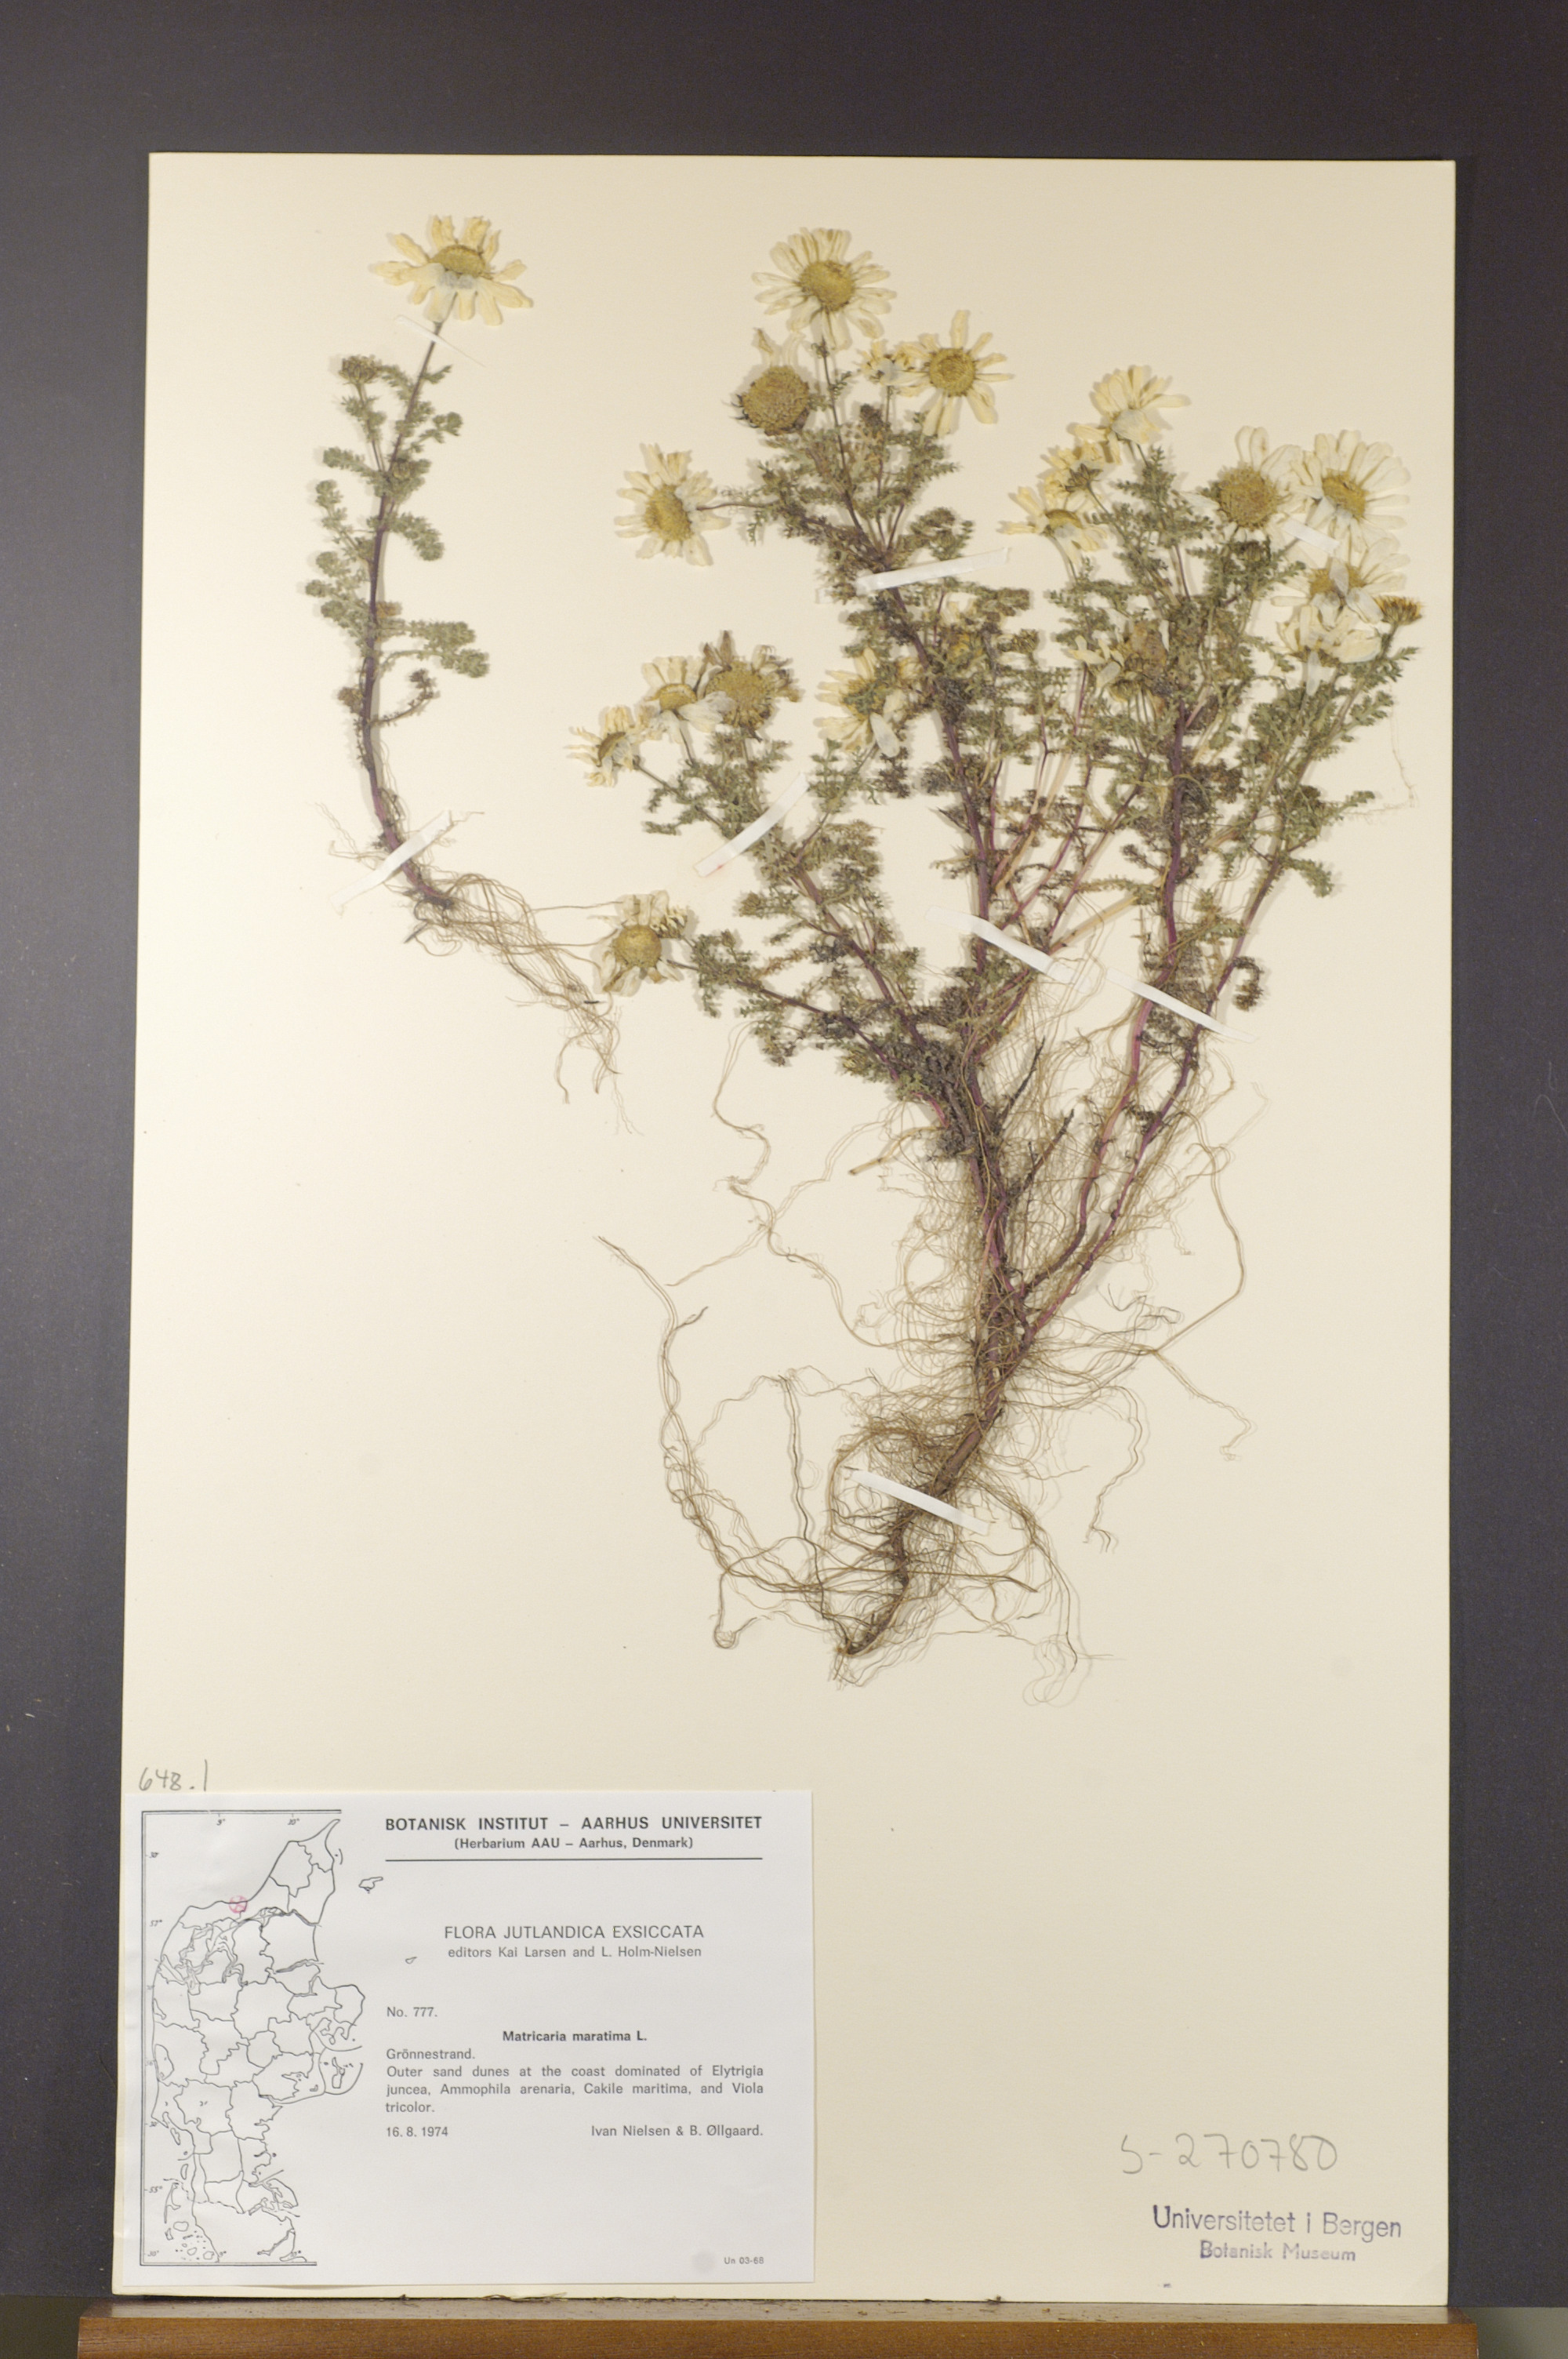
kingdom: Plantae
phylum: Tracheophyta
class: Magnoliopsida
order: Asterales
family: Asteraceae
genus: Tripleurospermum
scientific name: Tripleurospermum maritimum
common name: Sea mayweed
